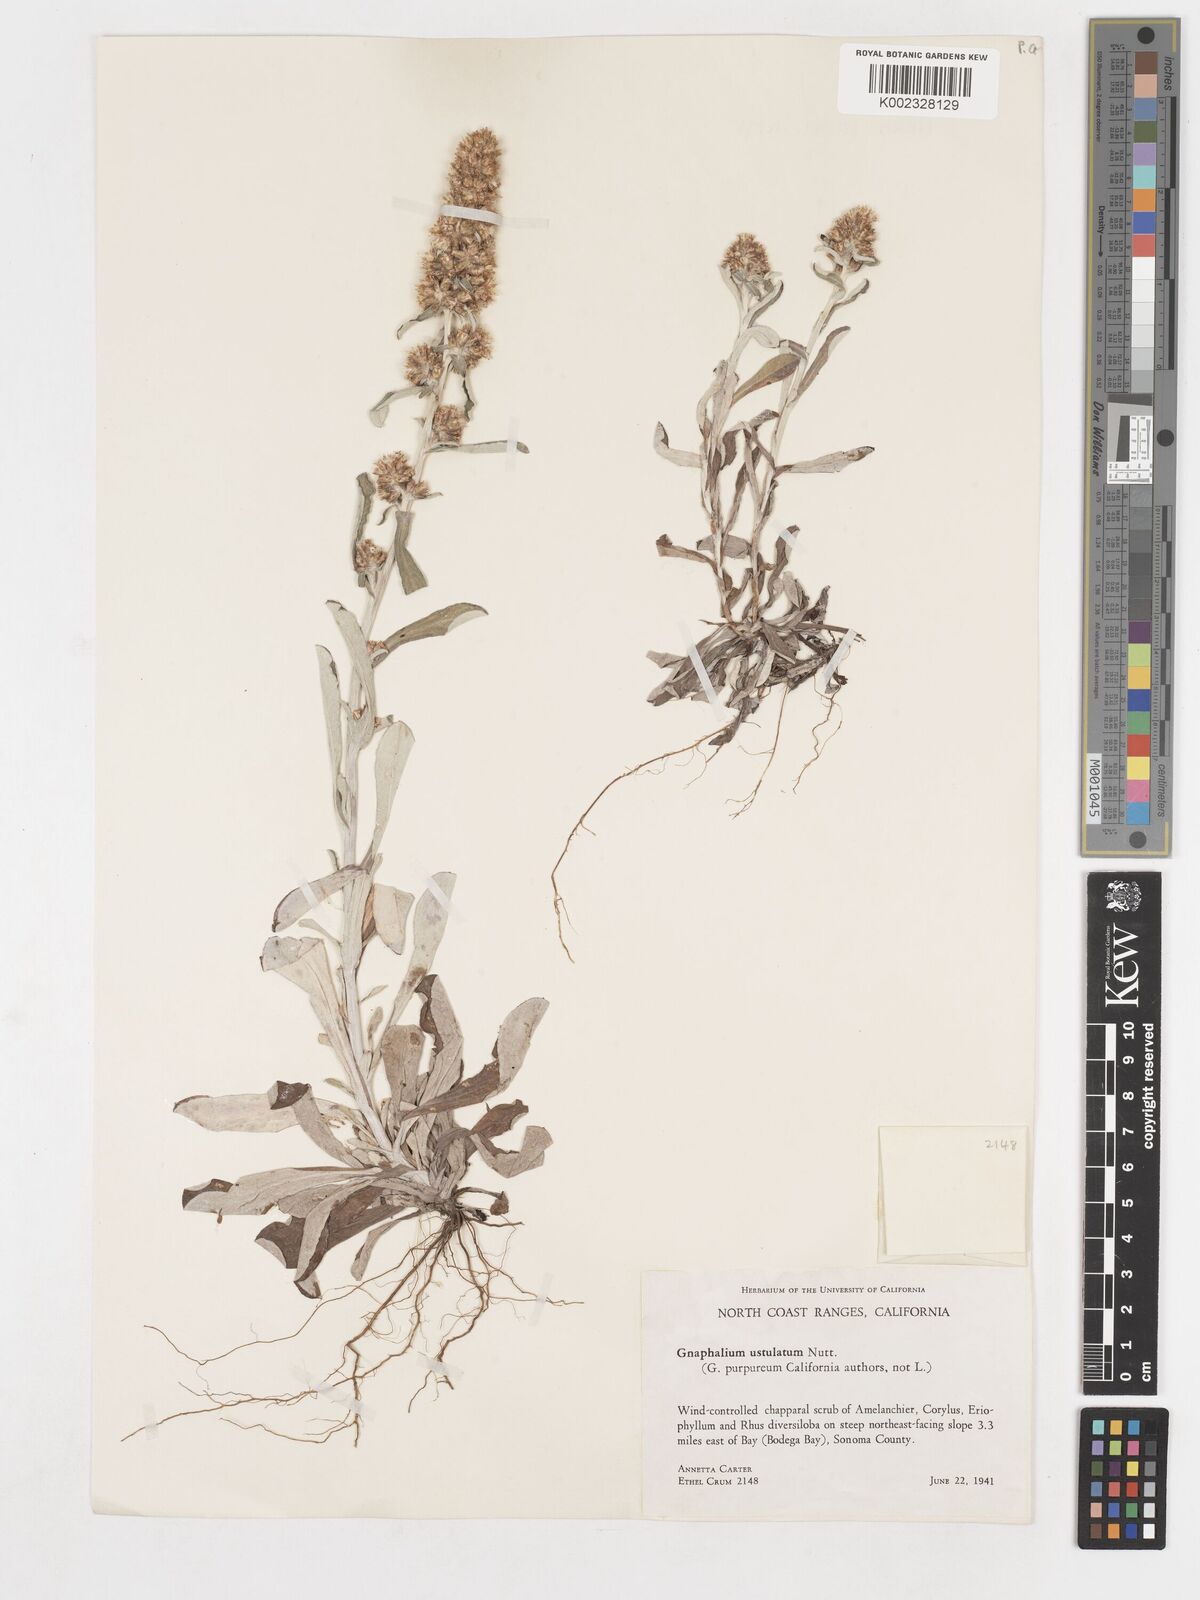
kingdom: Plantae
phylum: Tracheophyta
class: Magnoliopsida
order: Asterales
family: Asteraceae
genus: Gamochaeta
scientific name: Gamochaeta ustulata
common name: Pacific cudweed
